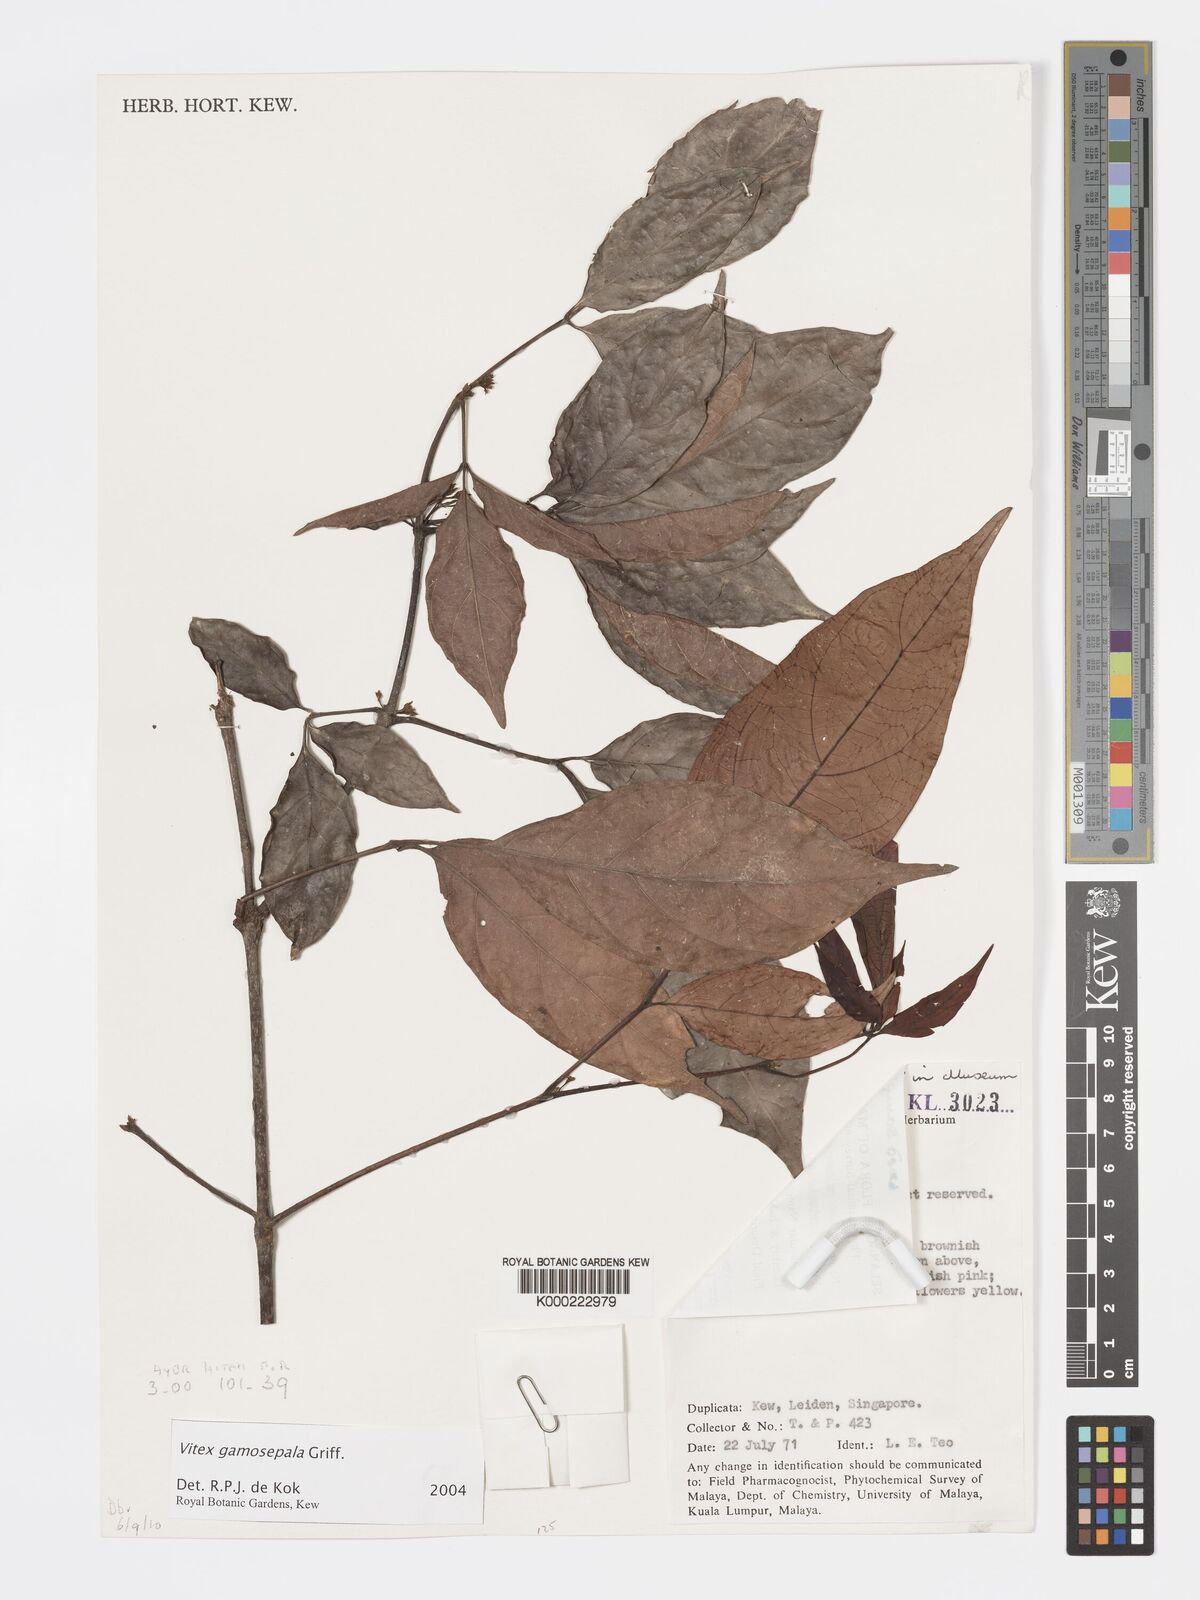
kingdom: Plantae
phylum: Tracheophyta
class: Magnoliopsida
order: Lamiales
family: Lamiaceae
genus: Vitex
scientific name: Vitex gamosepala
